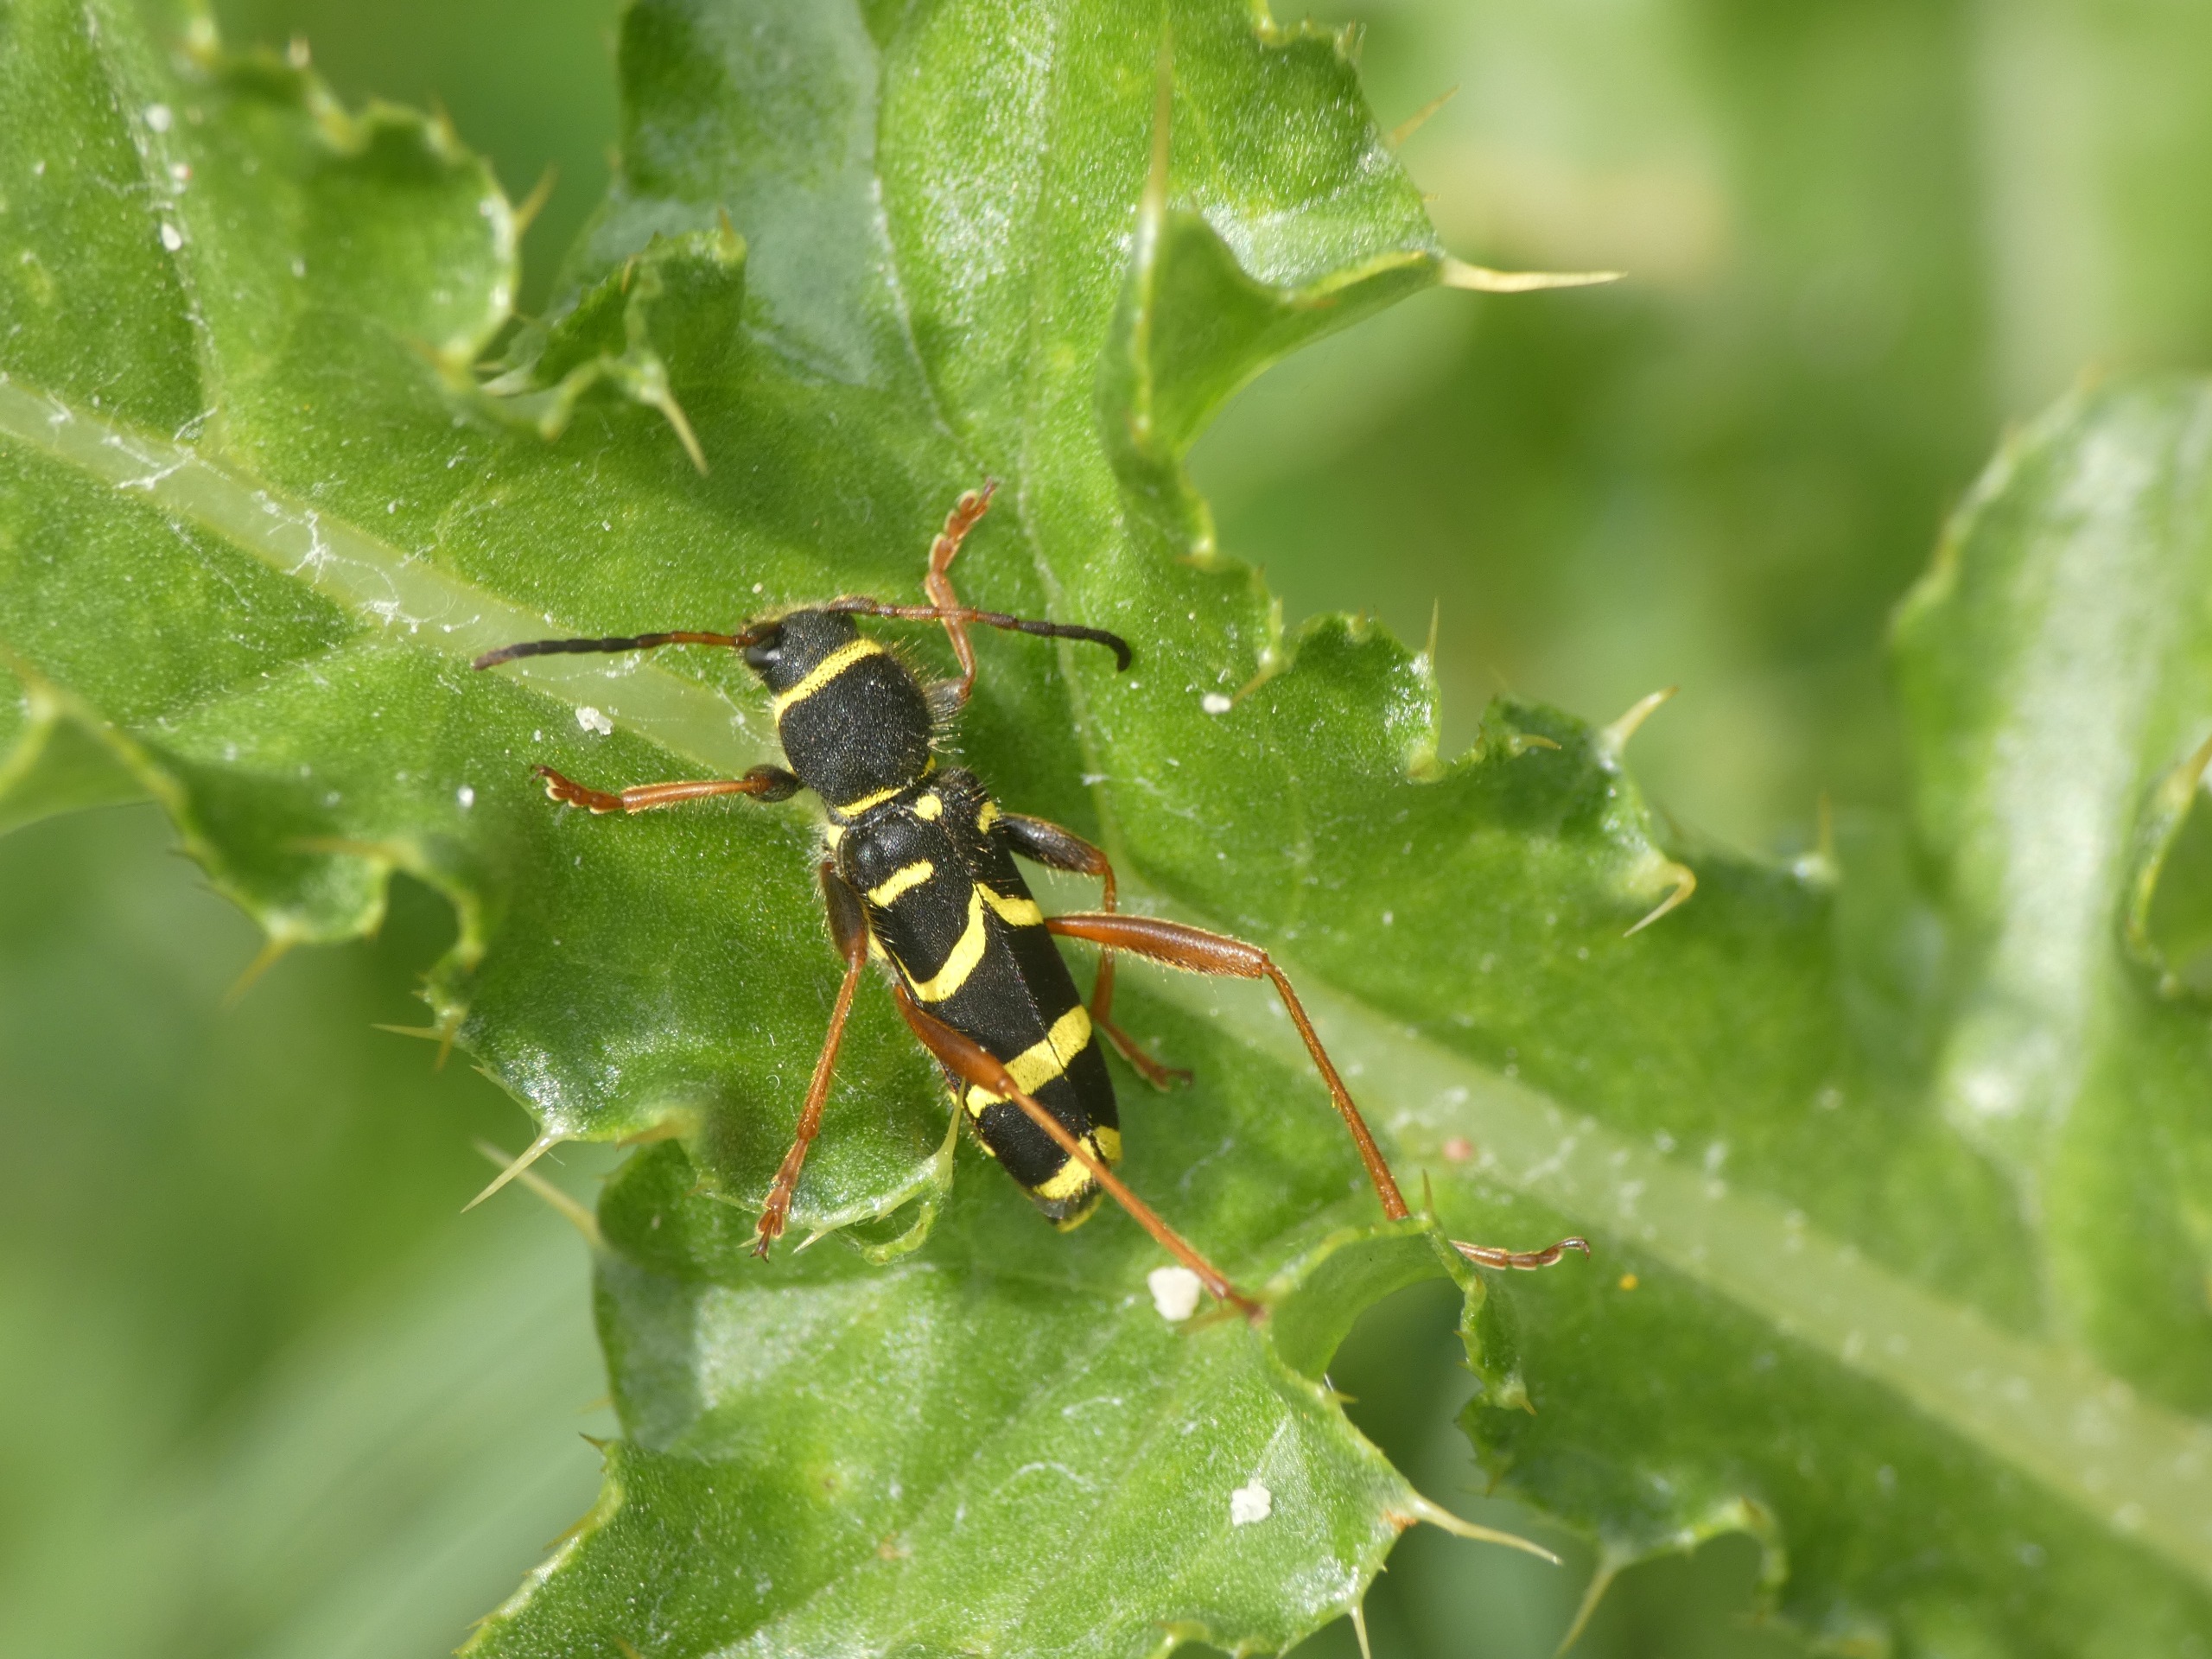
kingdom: Animalia
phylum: Arthropoda
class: Insecta
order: Coleoptera
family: Cerambycidae
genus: Clytus
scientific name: Clytus arietis
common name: Lille hvepsebuk
